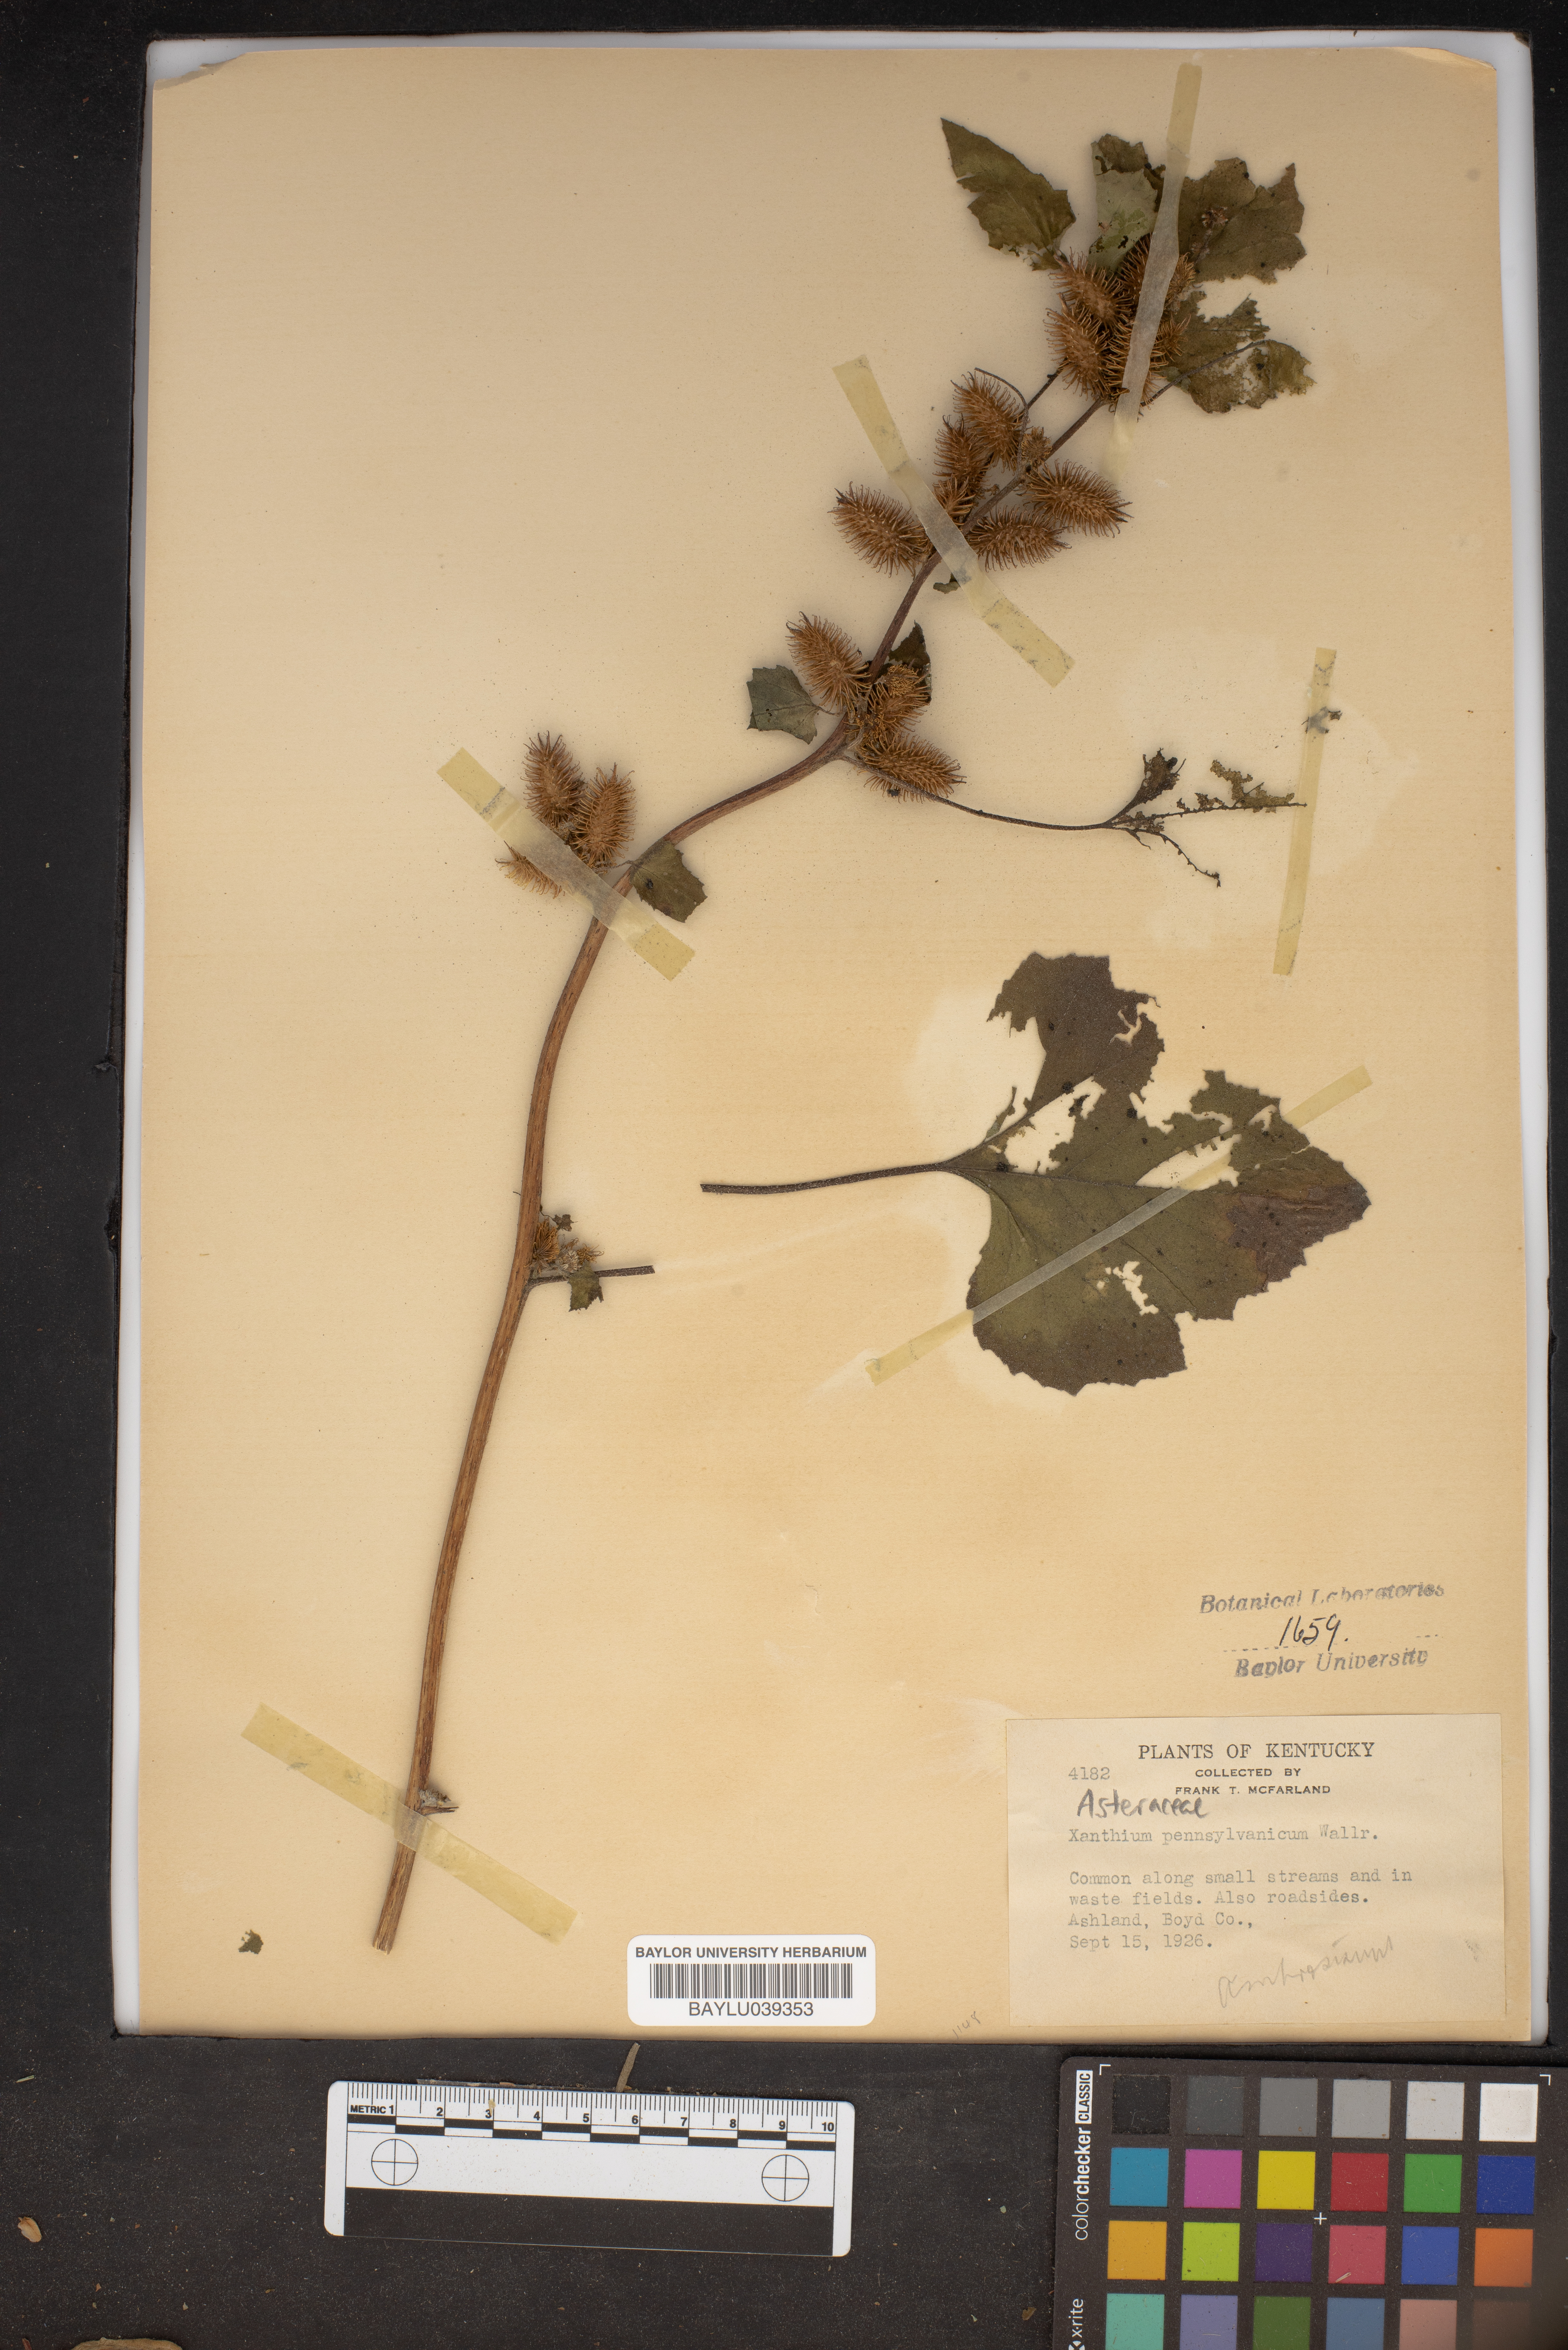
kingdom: Plantae
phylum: Tracheophyta
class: Magnoliopsida
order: Asterales
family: Asteraceae
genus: Xanthium
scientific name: Xanthium orientale
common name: Californian burr
